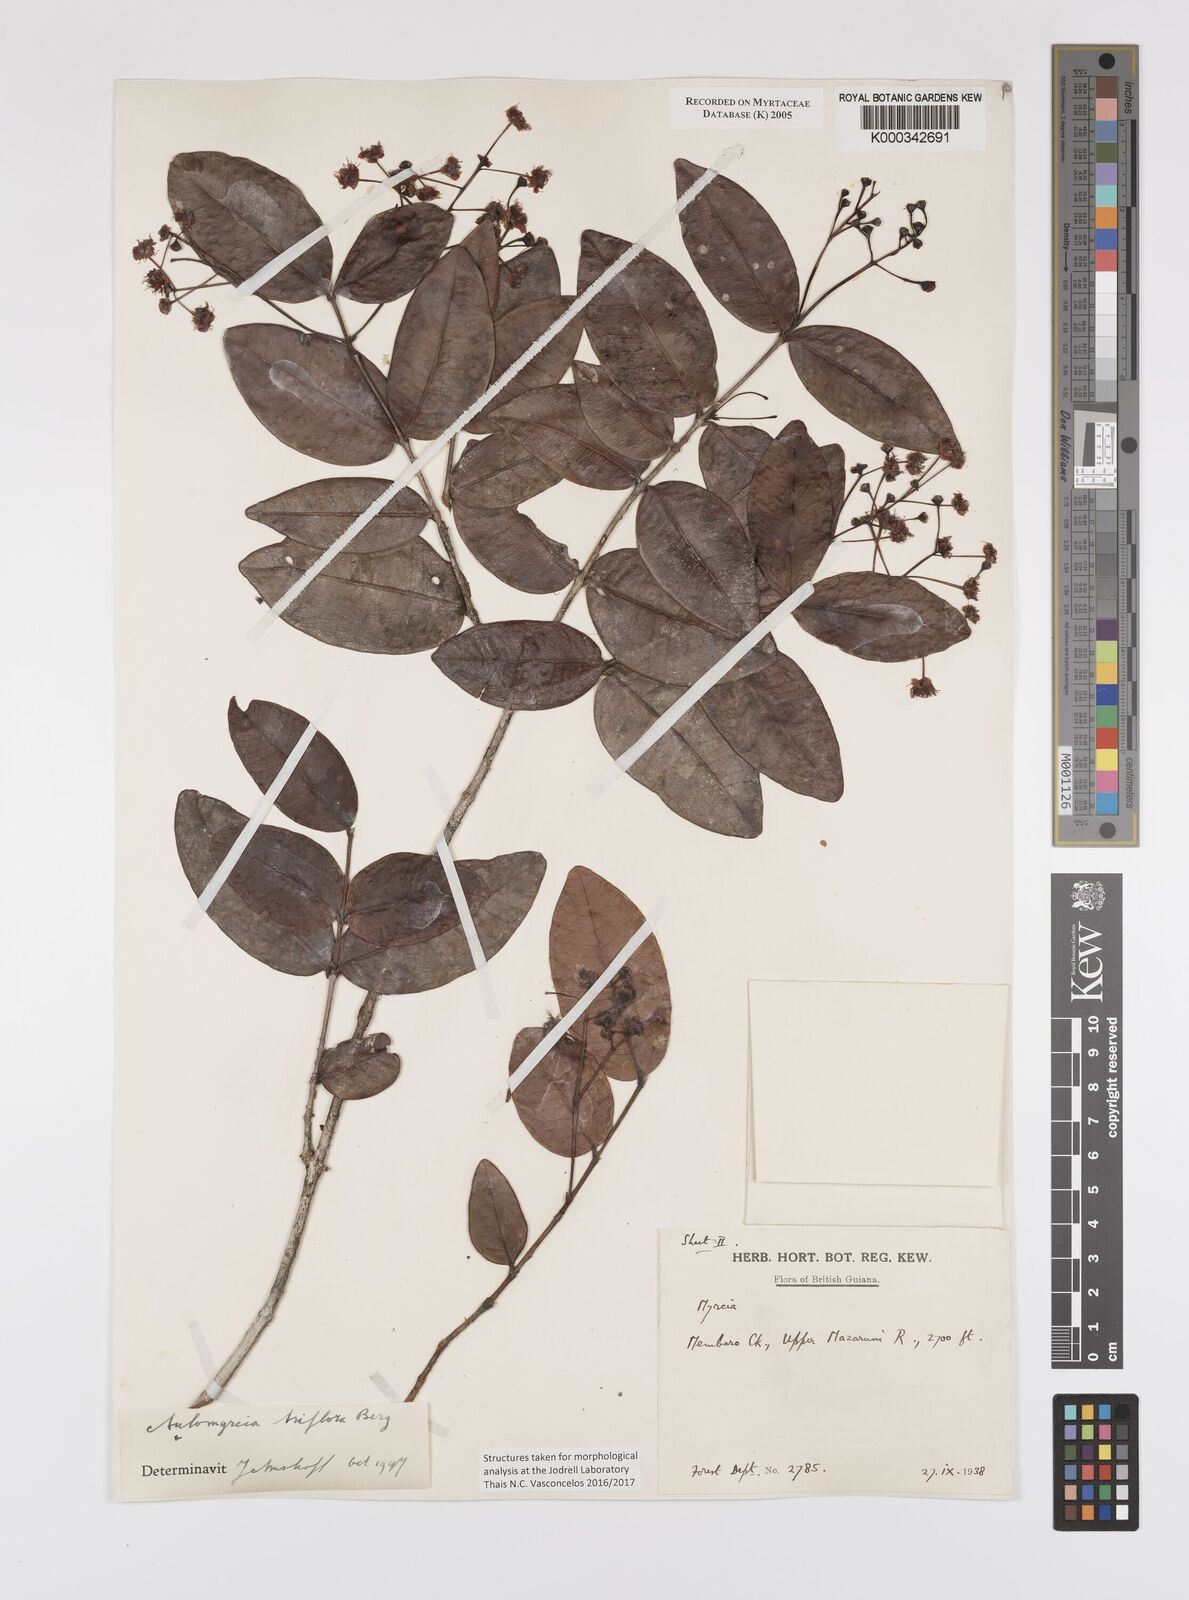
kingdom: Plantae
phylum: Tracheophyta
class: Magnoliopsida
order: Myrtales
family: Myrtaceae
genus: Myrcia
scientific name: Myrcia guianensis
